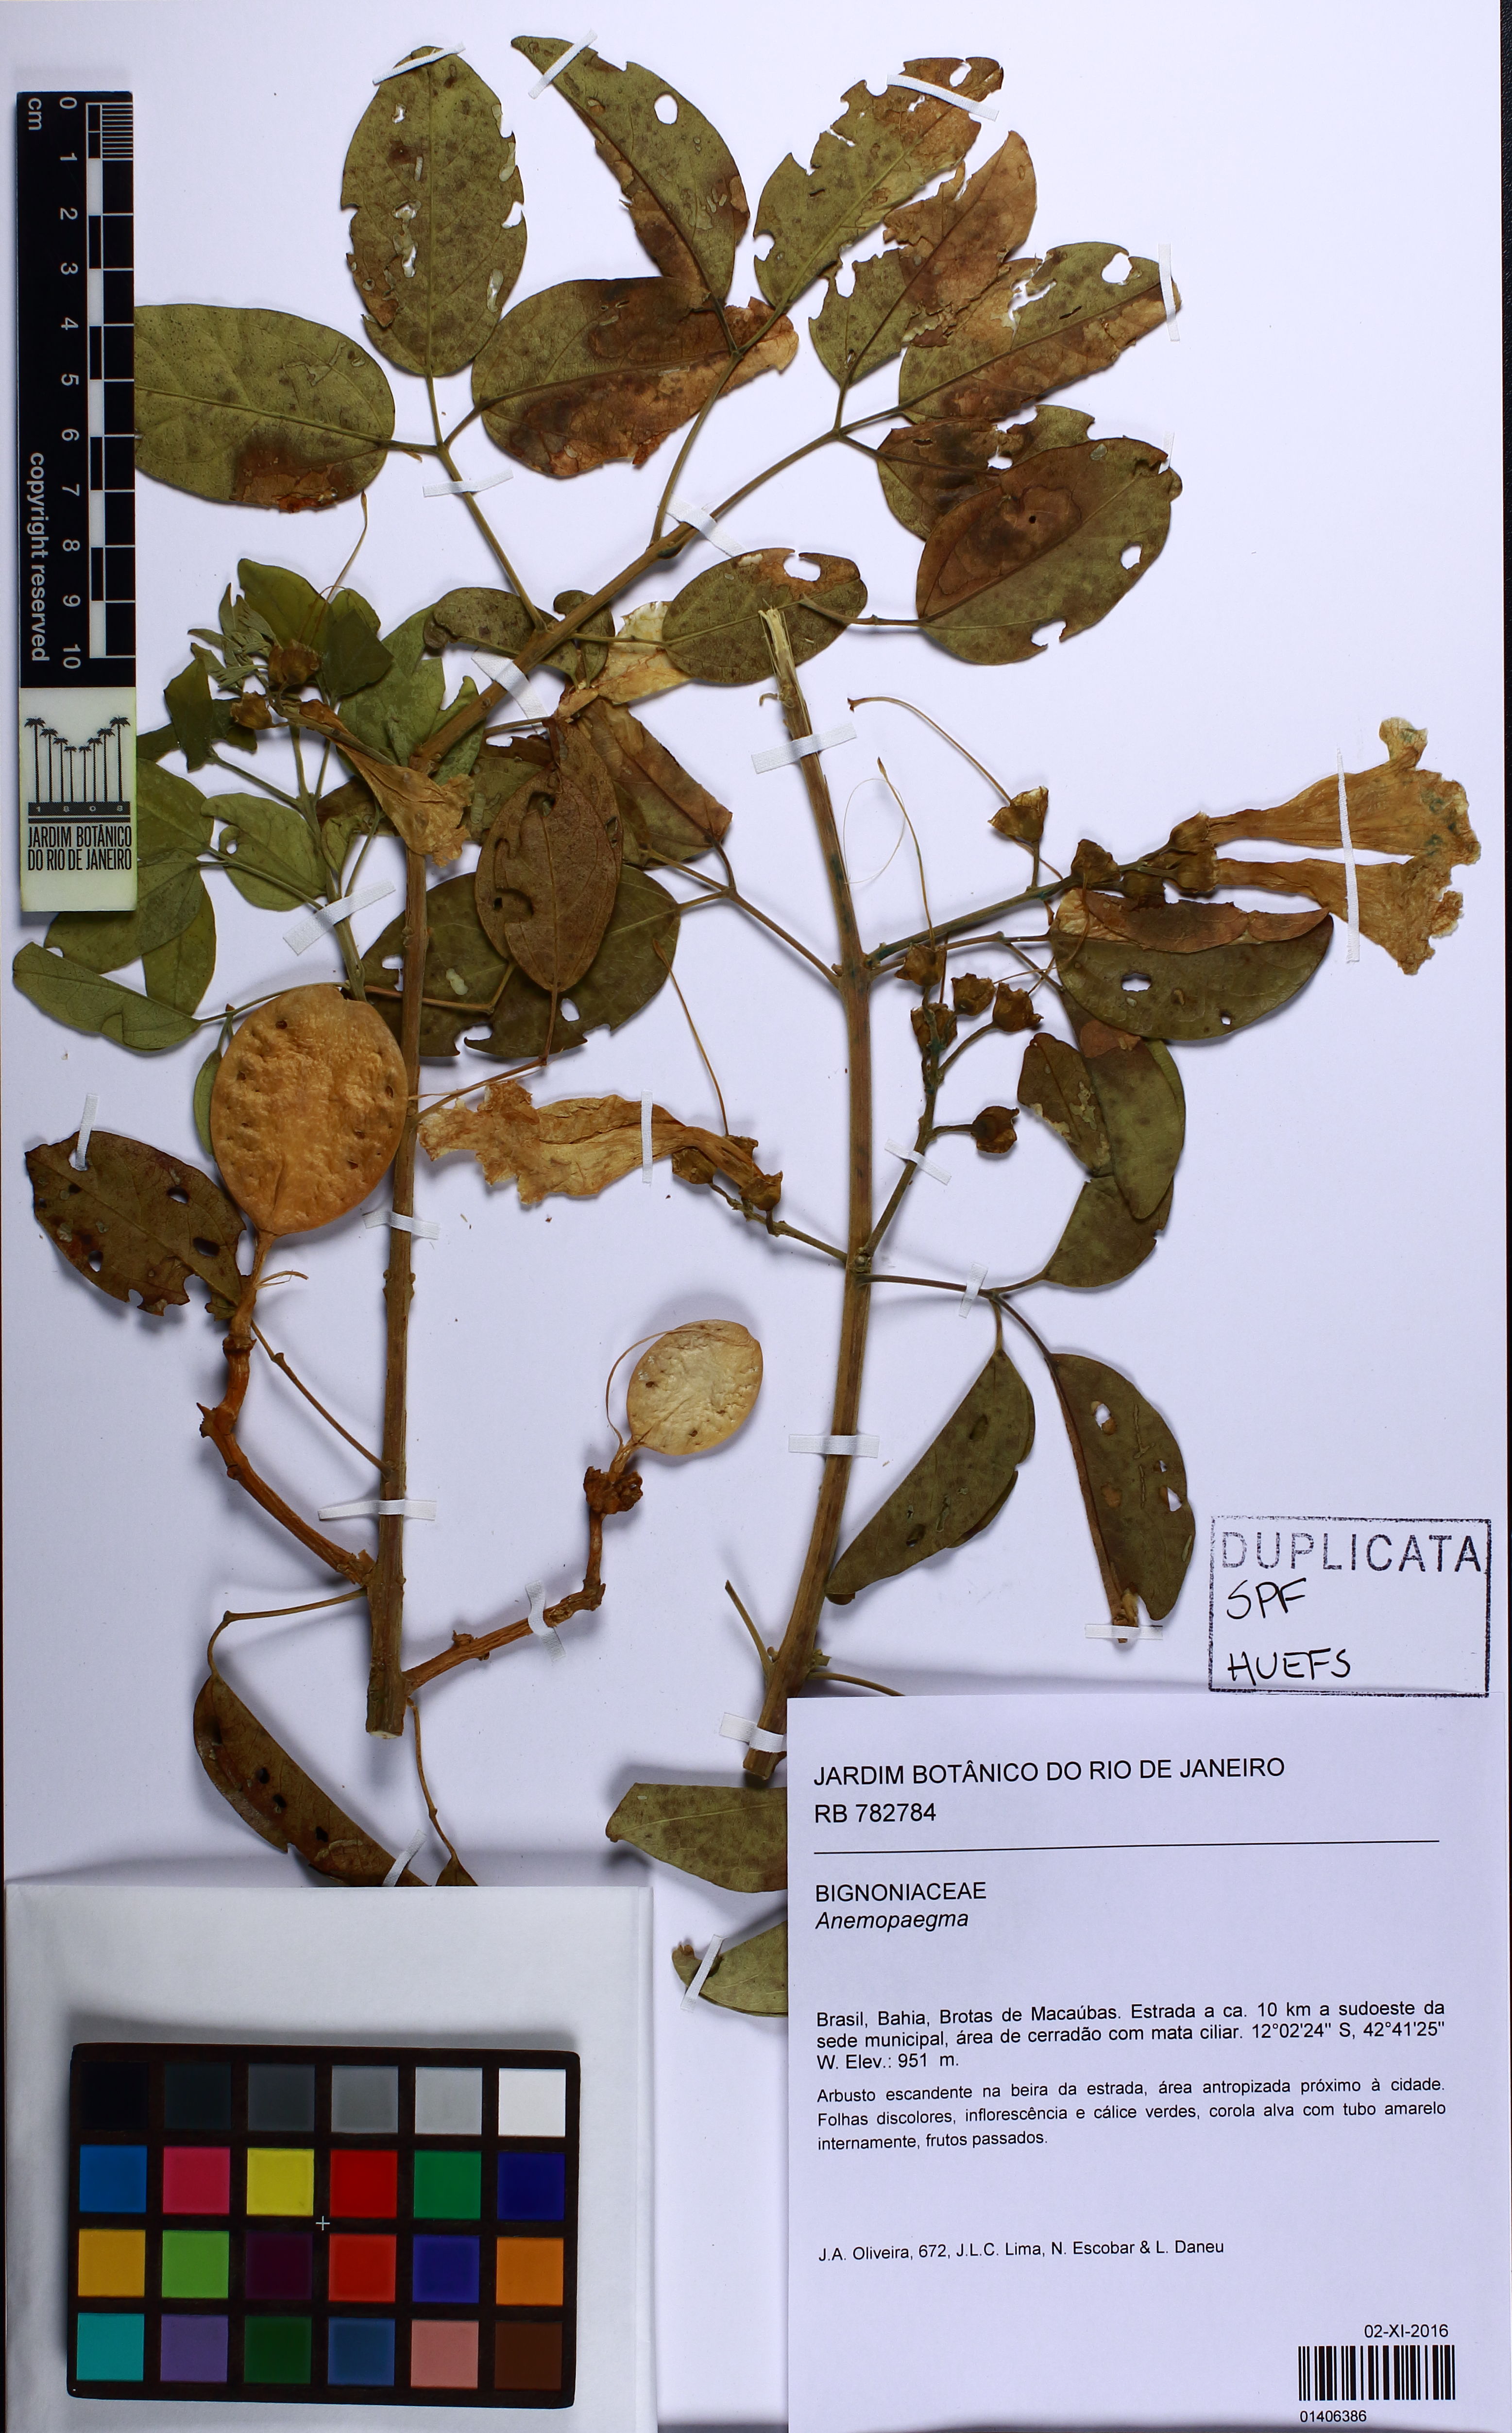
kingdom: Plantae
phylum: Tracheophyta
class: Magnoliopsida
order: Lamiales
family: Bignoniaceae
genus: Anemopaegma
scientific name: Anemopaegma
